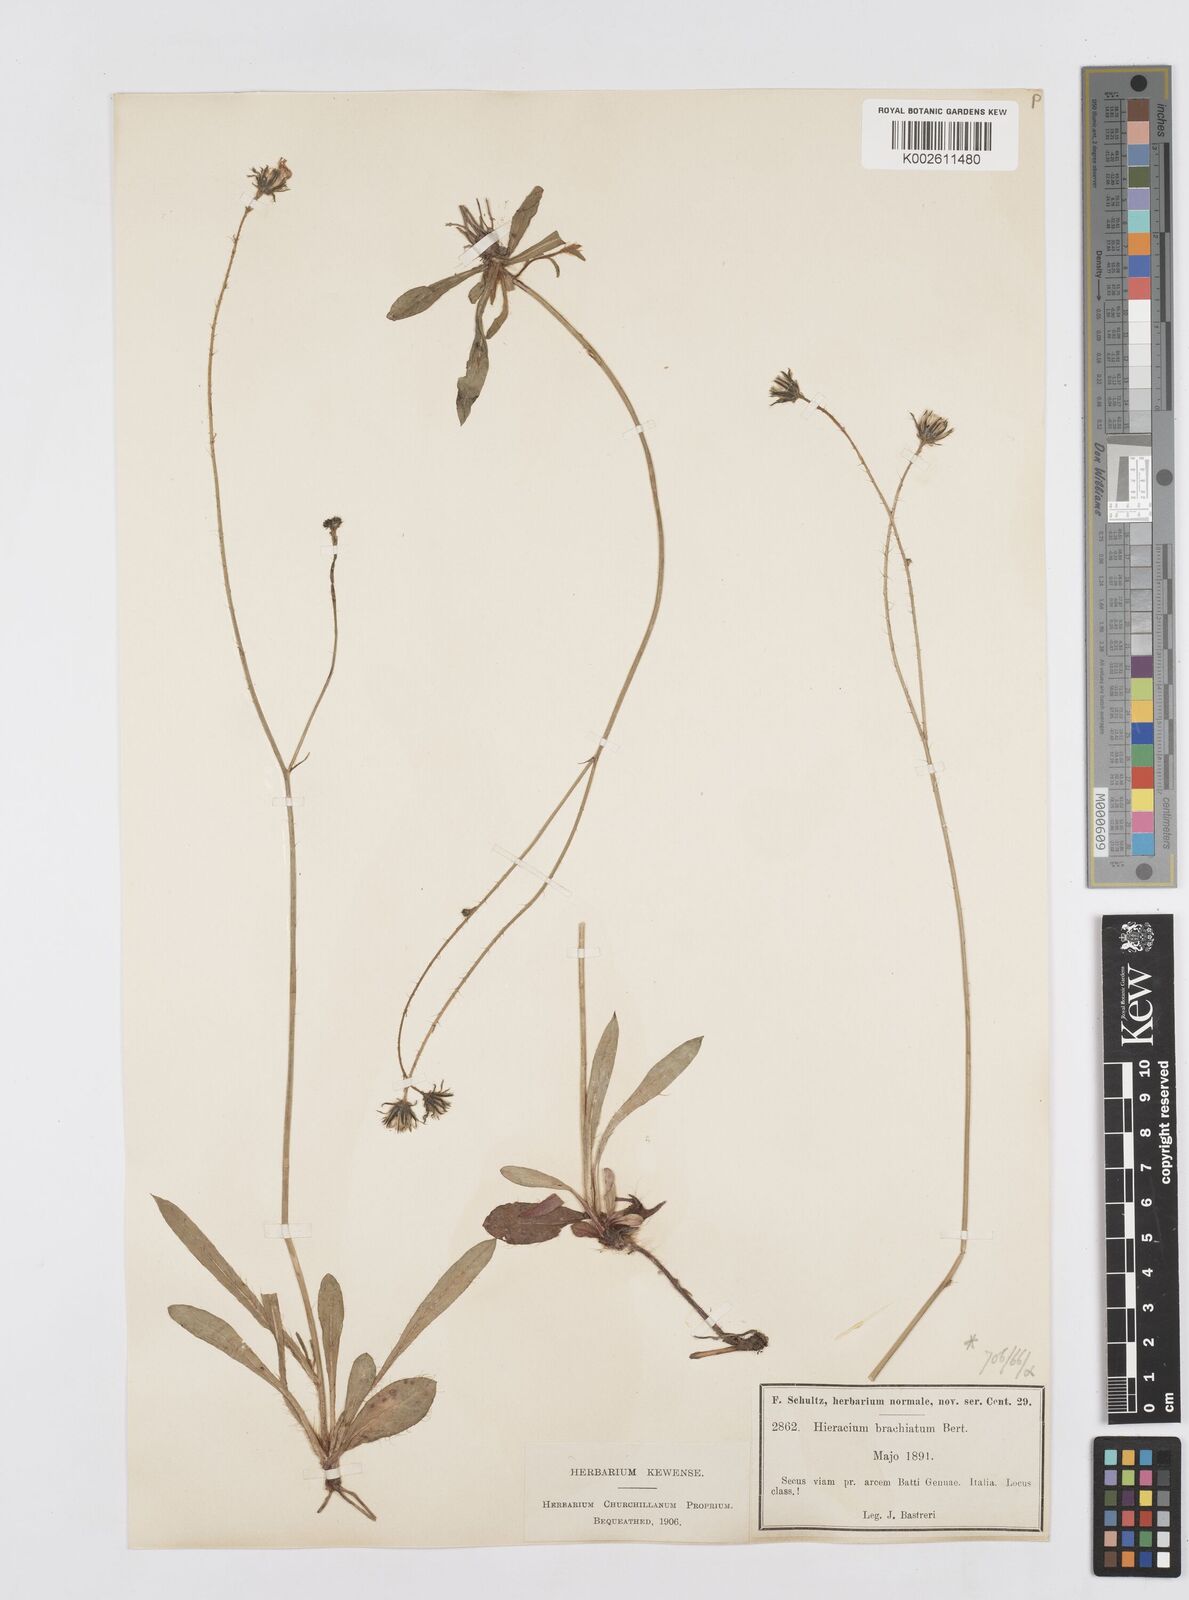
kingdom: Plantae
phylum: Tracheophyta
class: Magnoliopsida
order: Asterales
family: Asteraceae
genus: Pilosella
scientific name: Pilosella acutifolia
